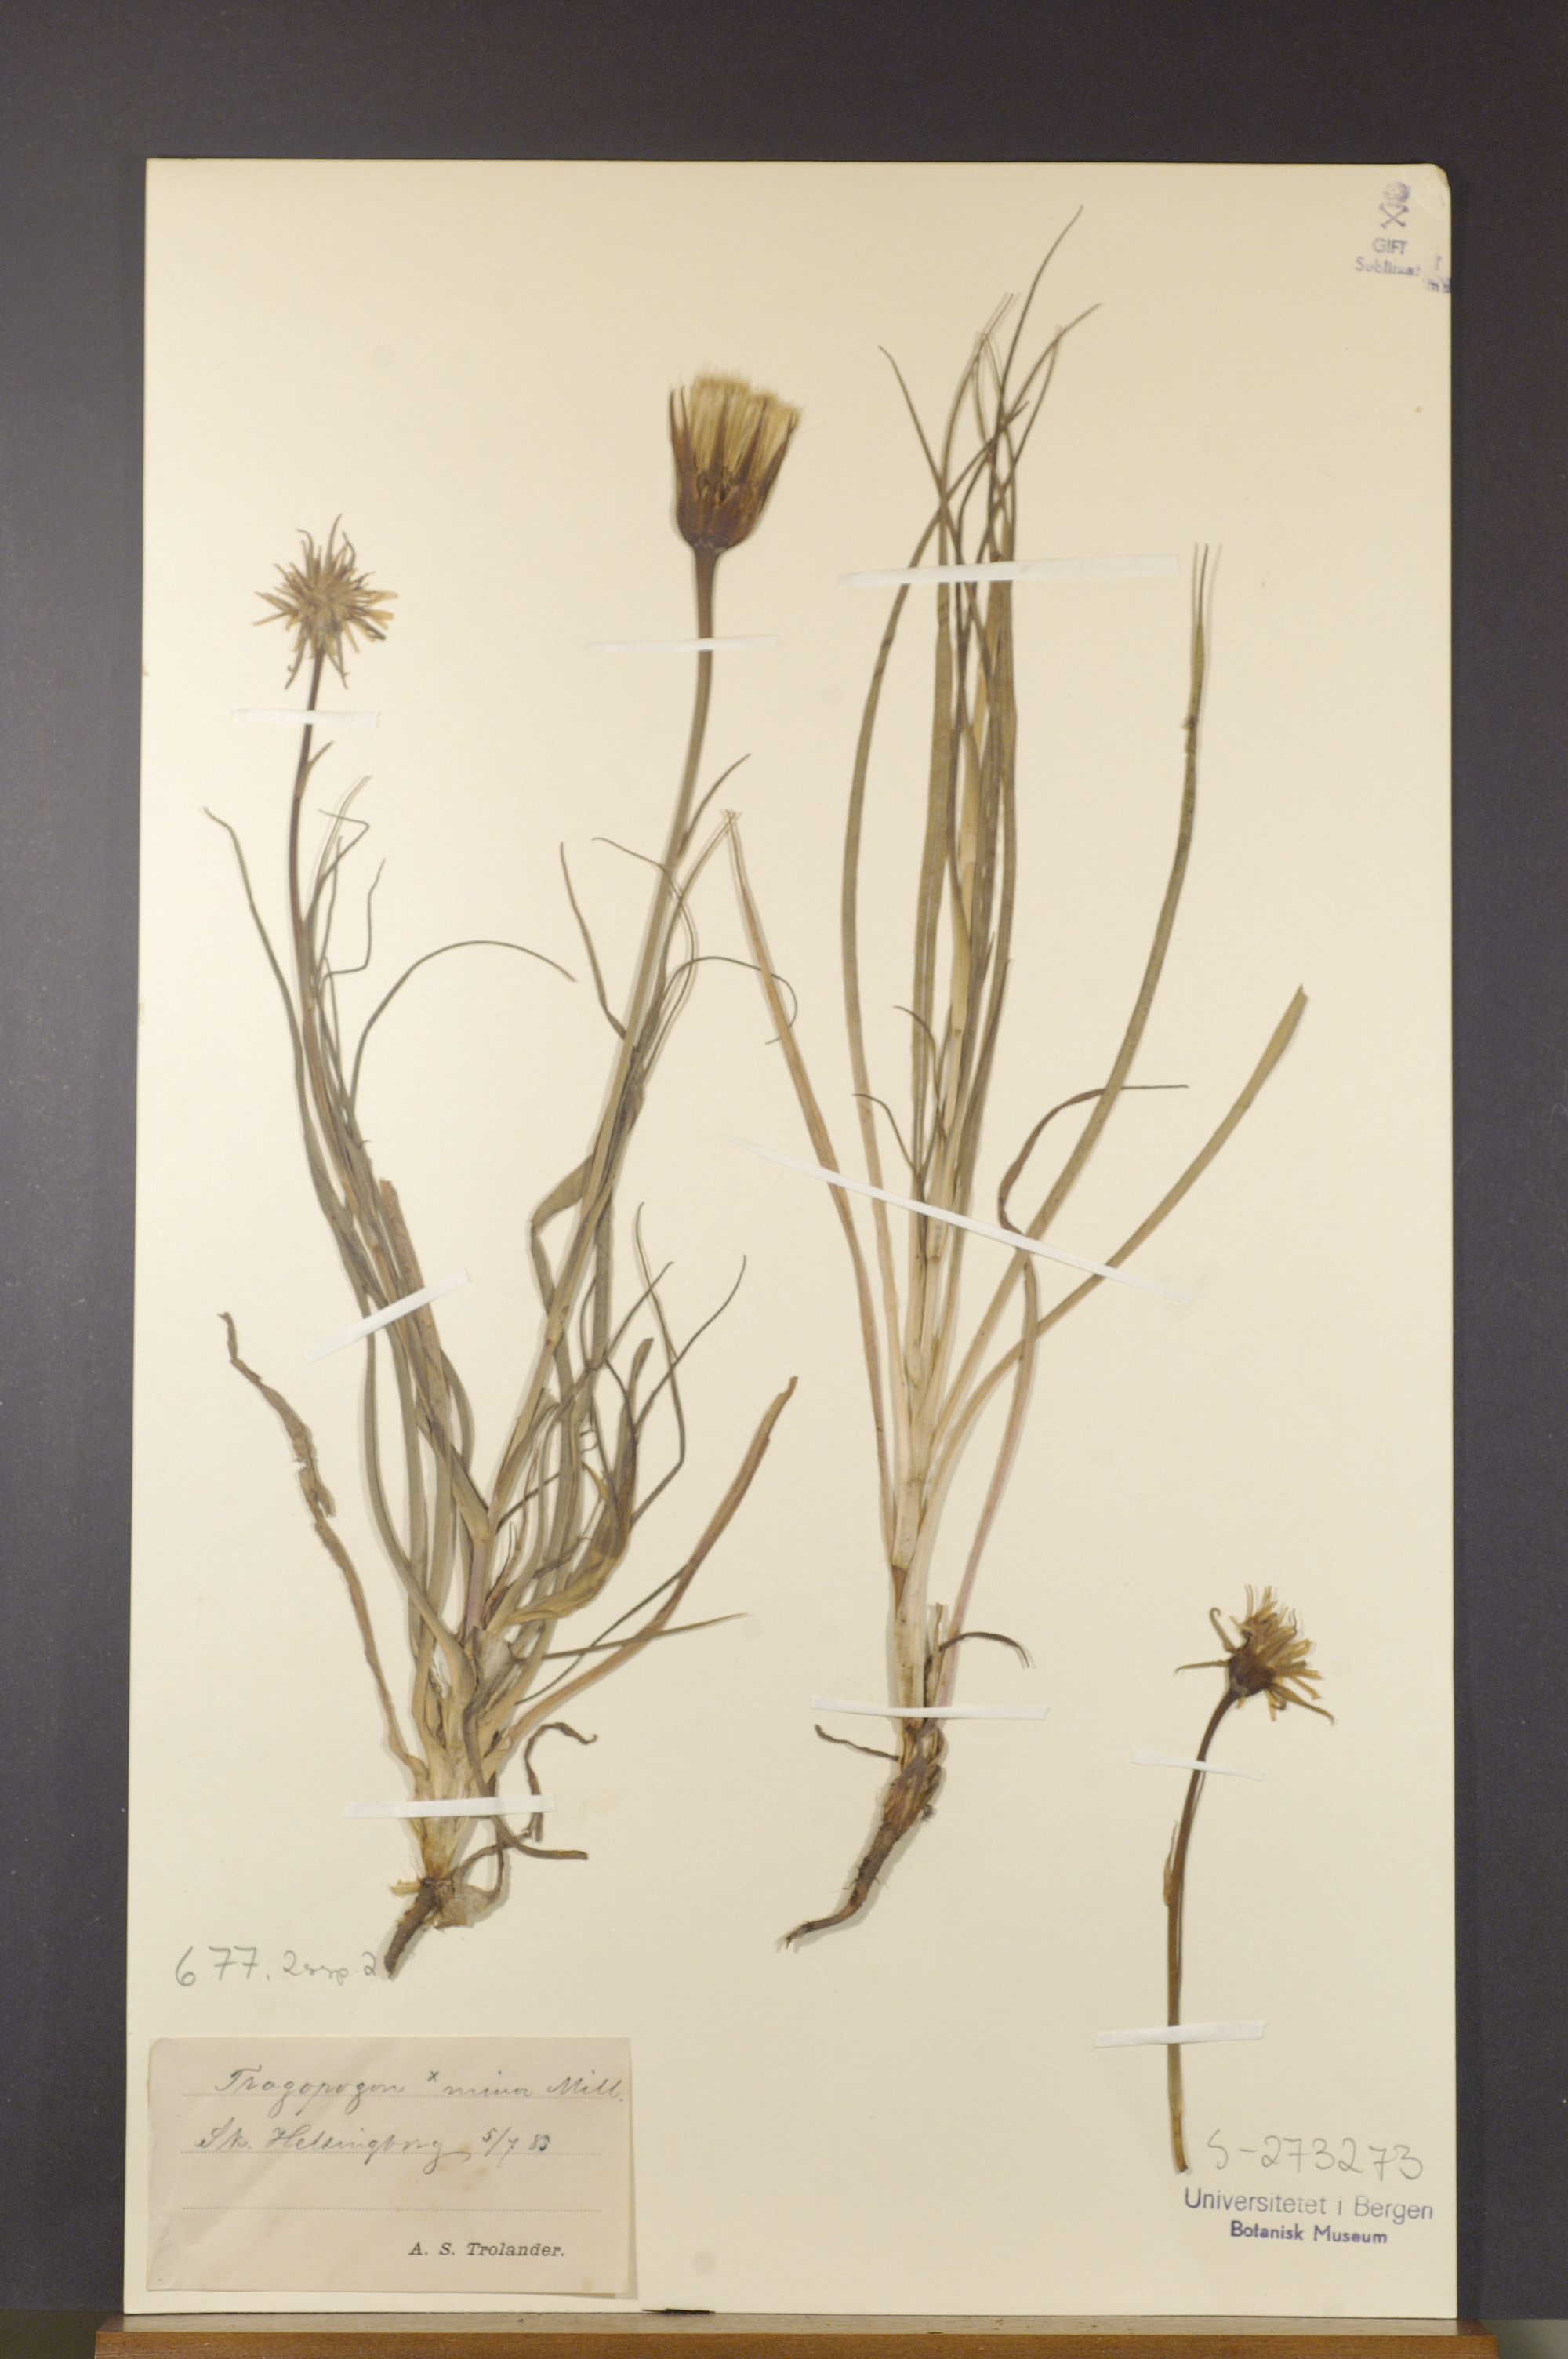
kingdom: Plantae
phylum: Tracheophyta
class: Magnoliopsida
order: Asterales
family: Asteraceae
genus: Tragopogon
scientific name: Tragopogon minor
